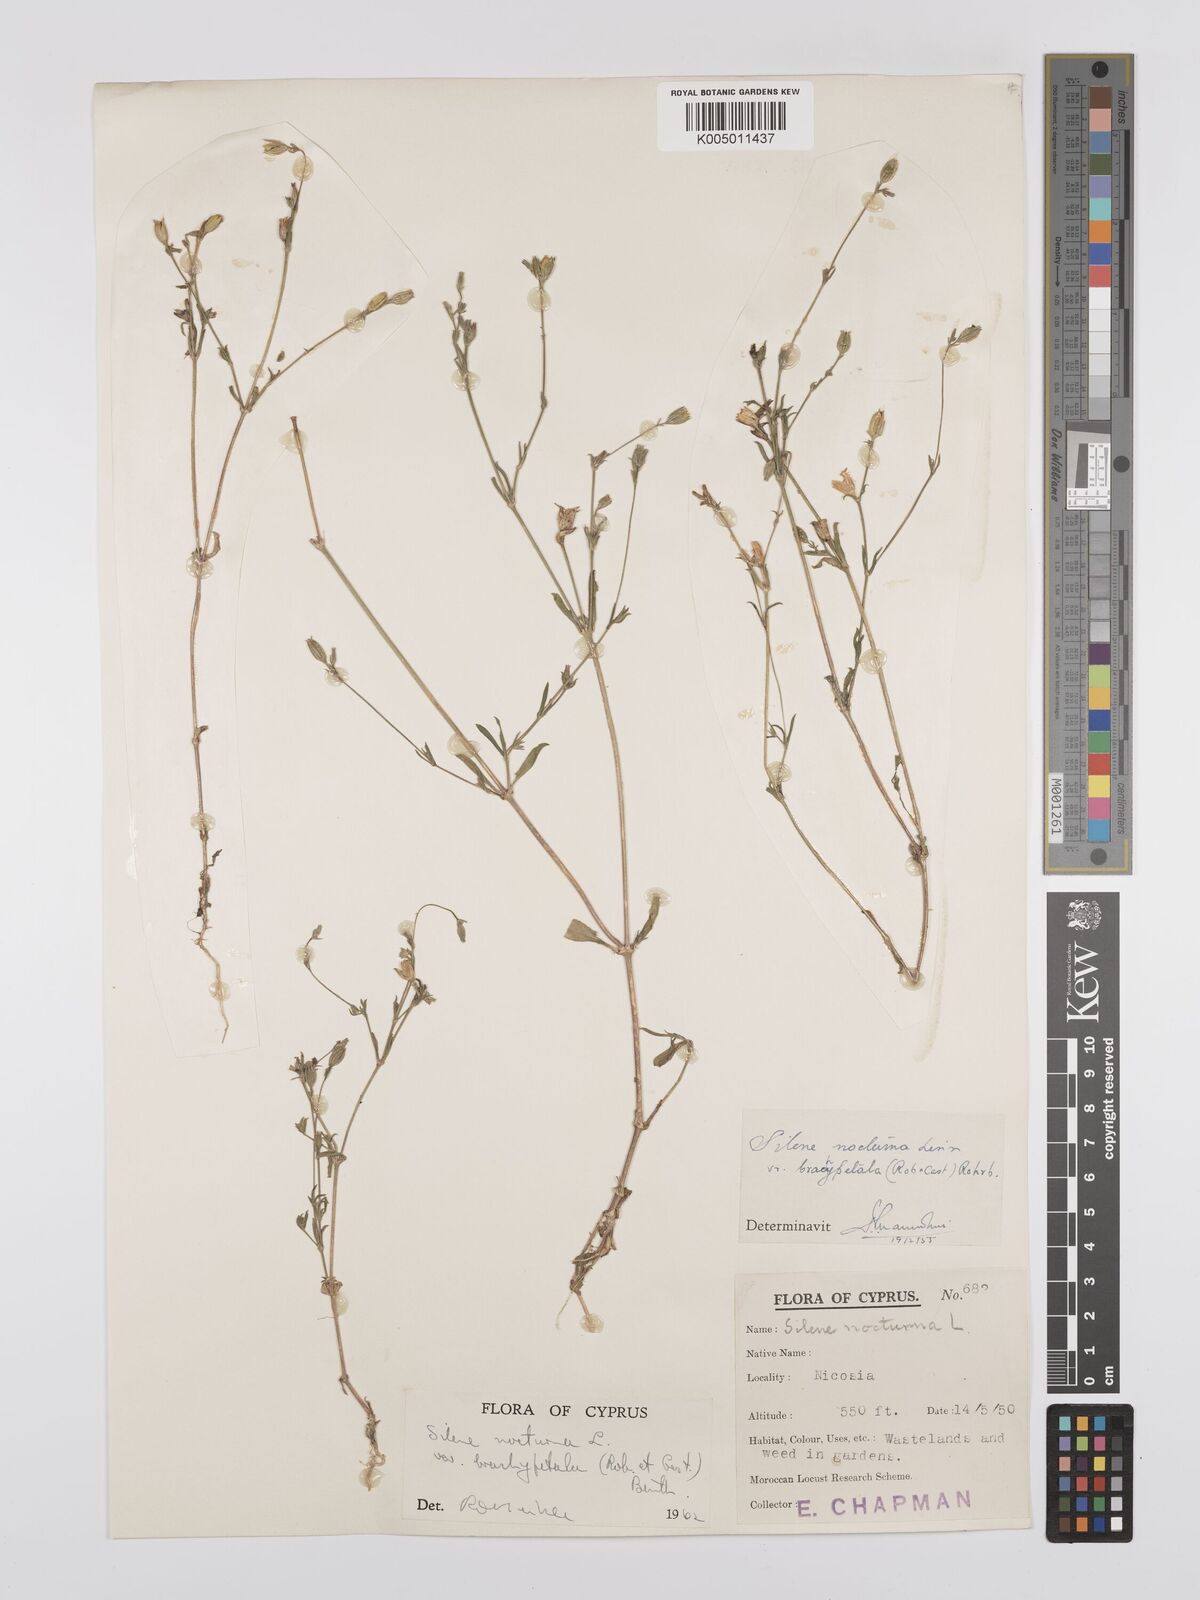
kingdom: Plantae
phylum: Tracheophyta
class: Magnoliopsida
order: Caryophyllales
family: Caryophyllaceae
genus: Silene
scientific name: Silene nocturna
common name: Mediterranean catchfly
